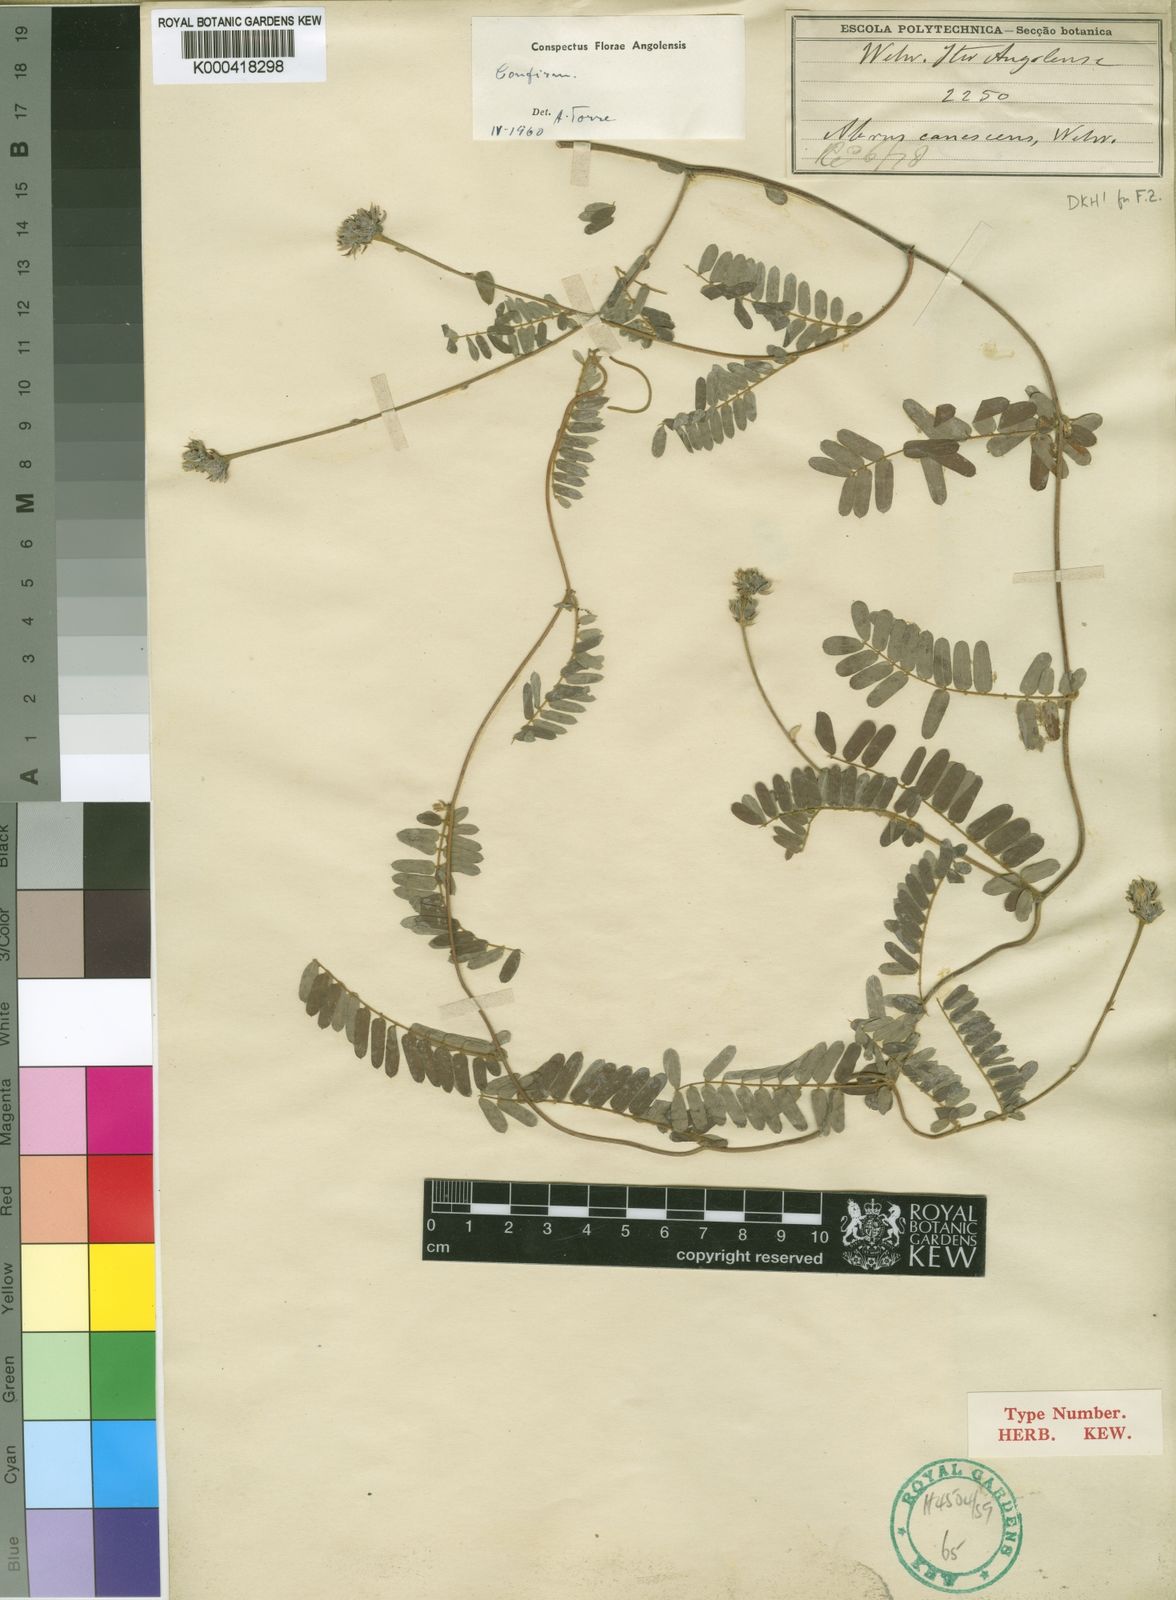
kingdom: Plantae
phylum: Tracheophyta
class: Magnoliopsida
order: Fabales
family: Fabaceae
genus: Abrus
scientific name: Abrus canescens
